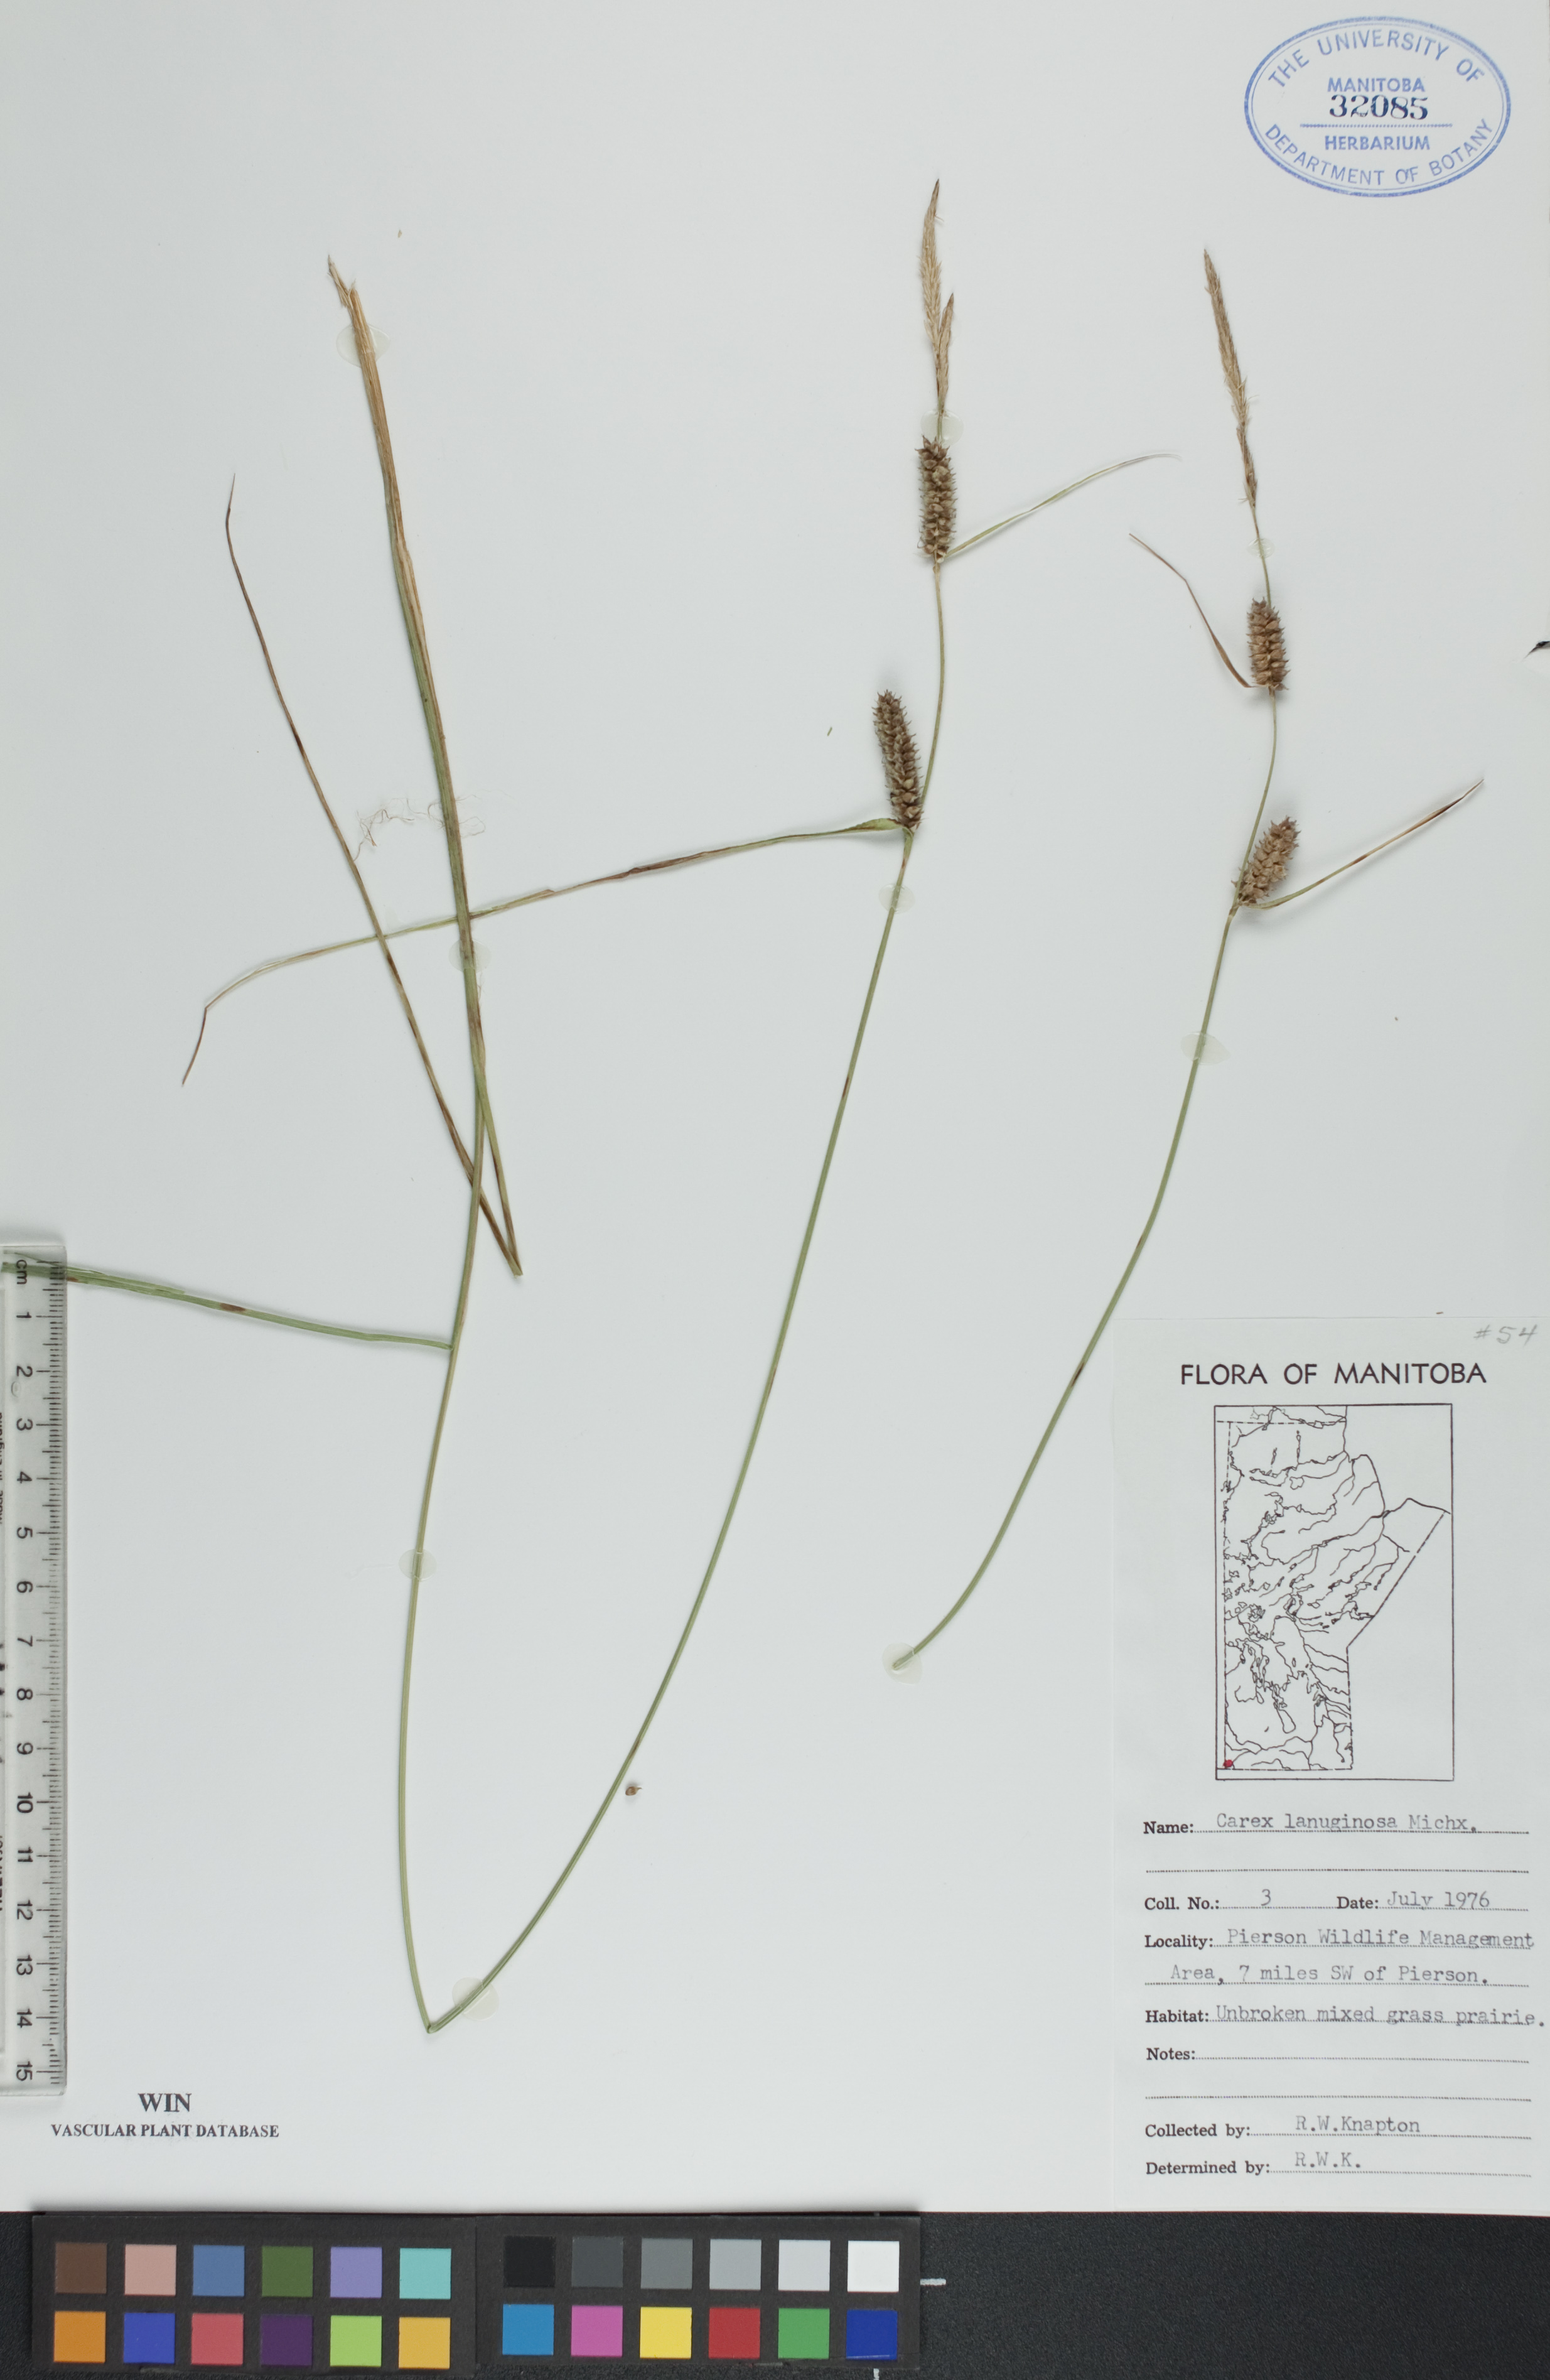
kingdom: Plantae
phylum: Tracheophyta
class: Liliopsida
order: Poales
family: Cyperaceae
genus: Carex
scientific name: Carex lasiocarpa
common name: Slender sedge
